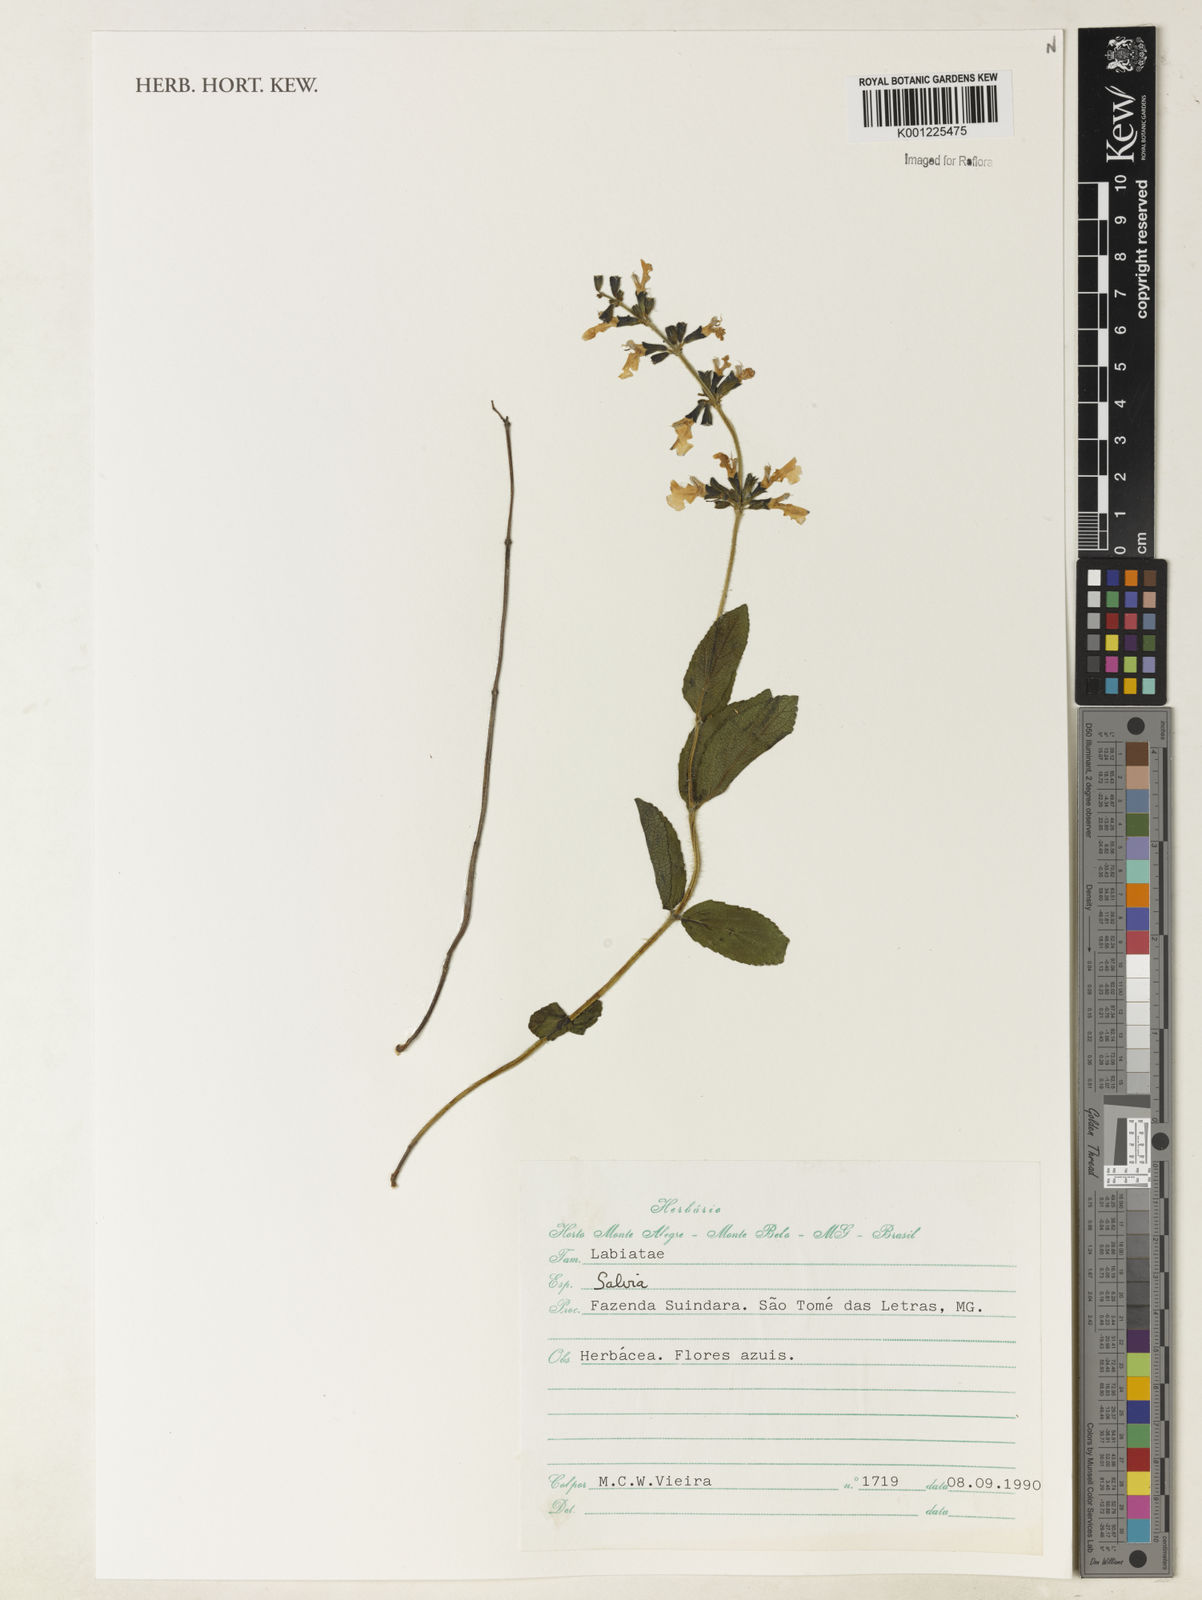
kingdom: Plantae
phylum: Tracheophyta
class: Magnoliopsida
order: Lamiales
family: Lamiaceae
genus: Salvia
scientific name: Salvia
